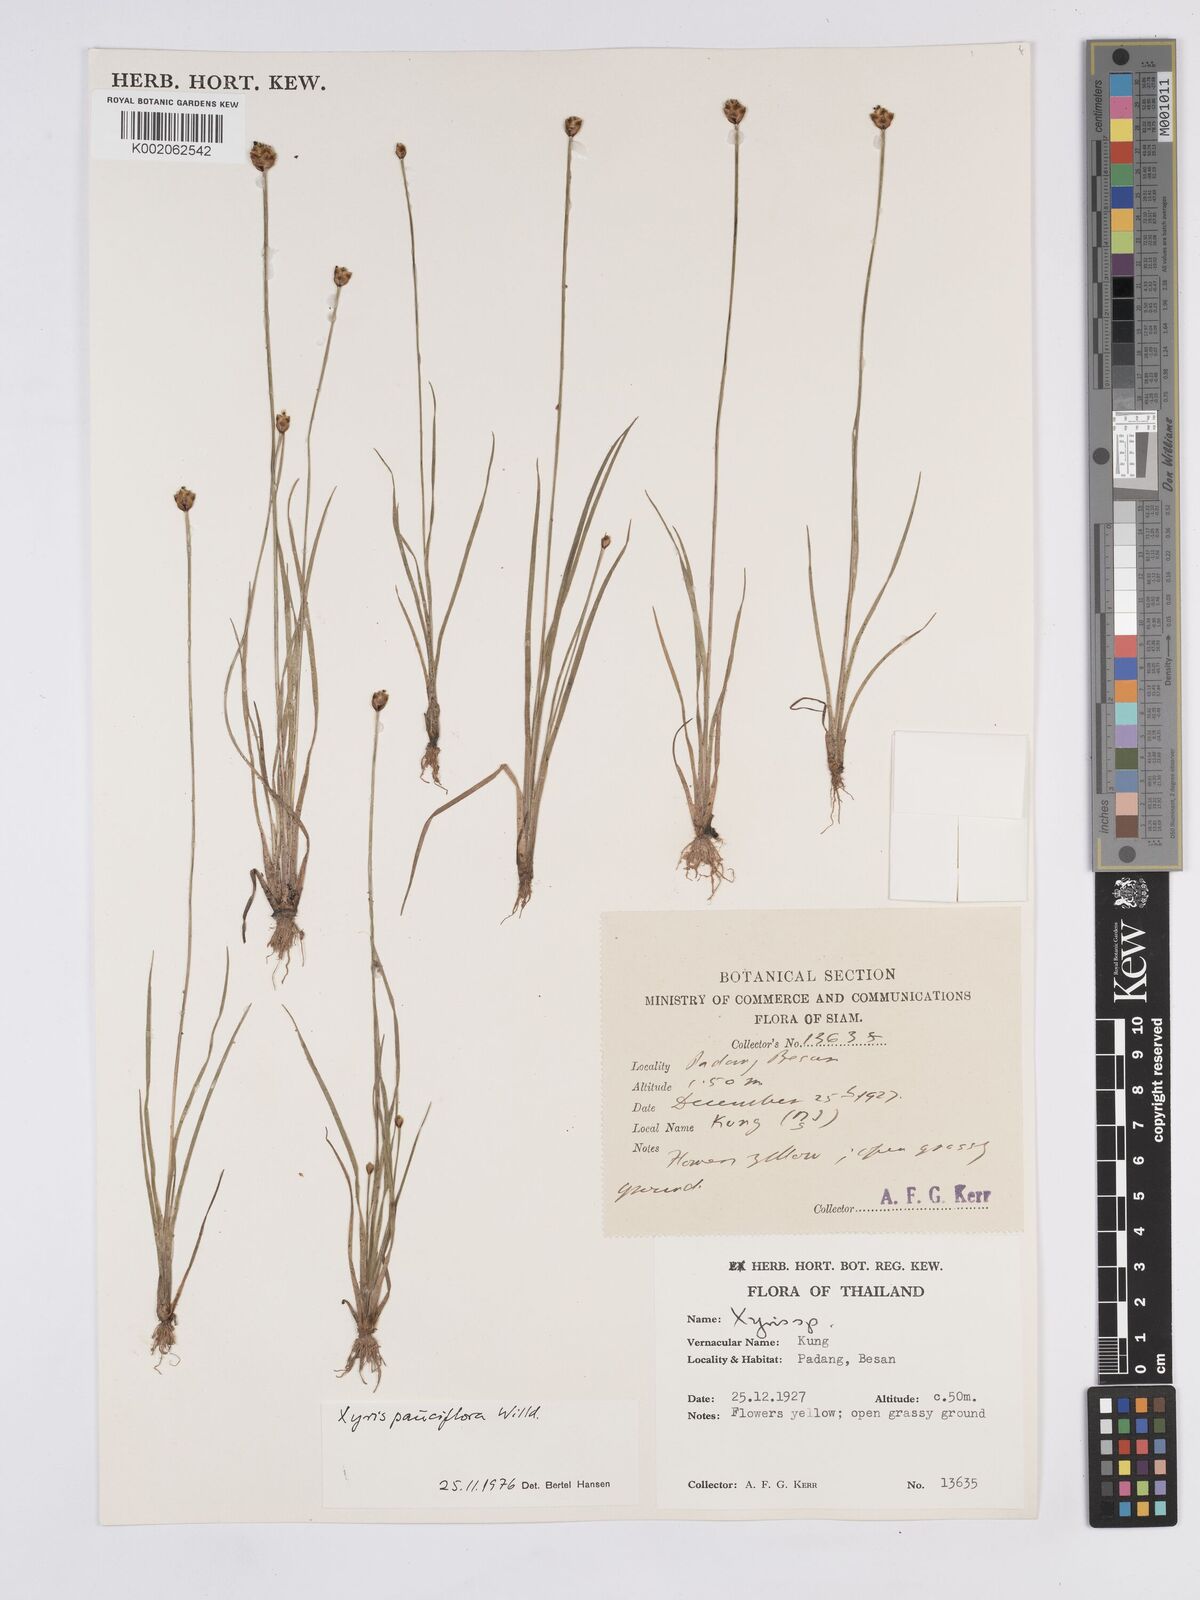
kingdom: Plantae
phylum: Tracheophyta
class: Liliopsida
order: Poales
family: Xyridaceae
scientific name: Xyridaceae
